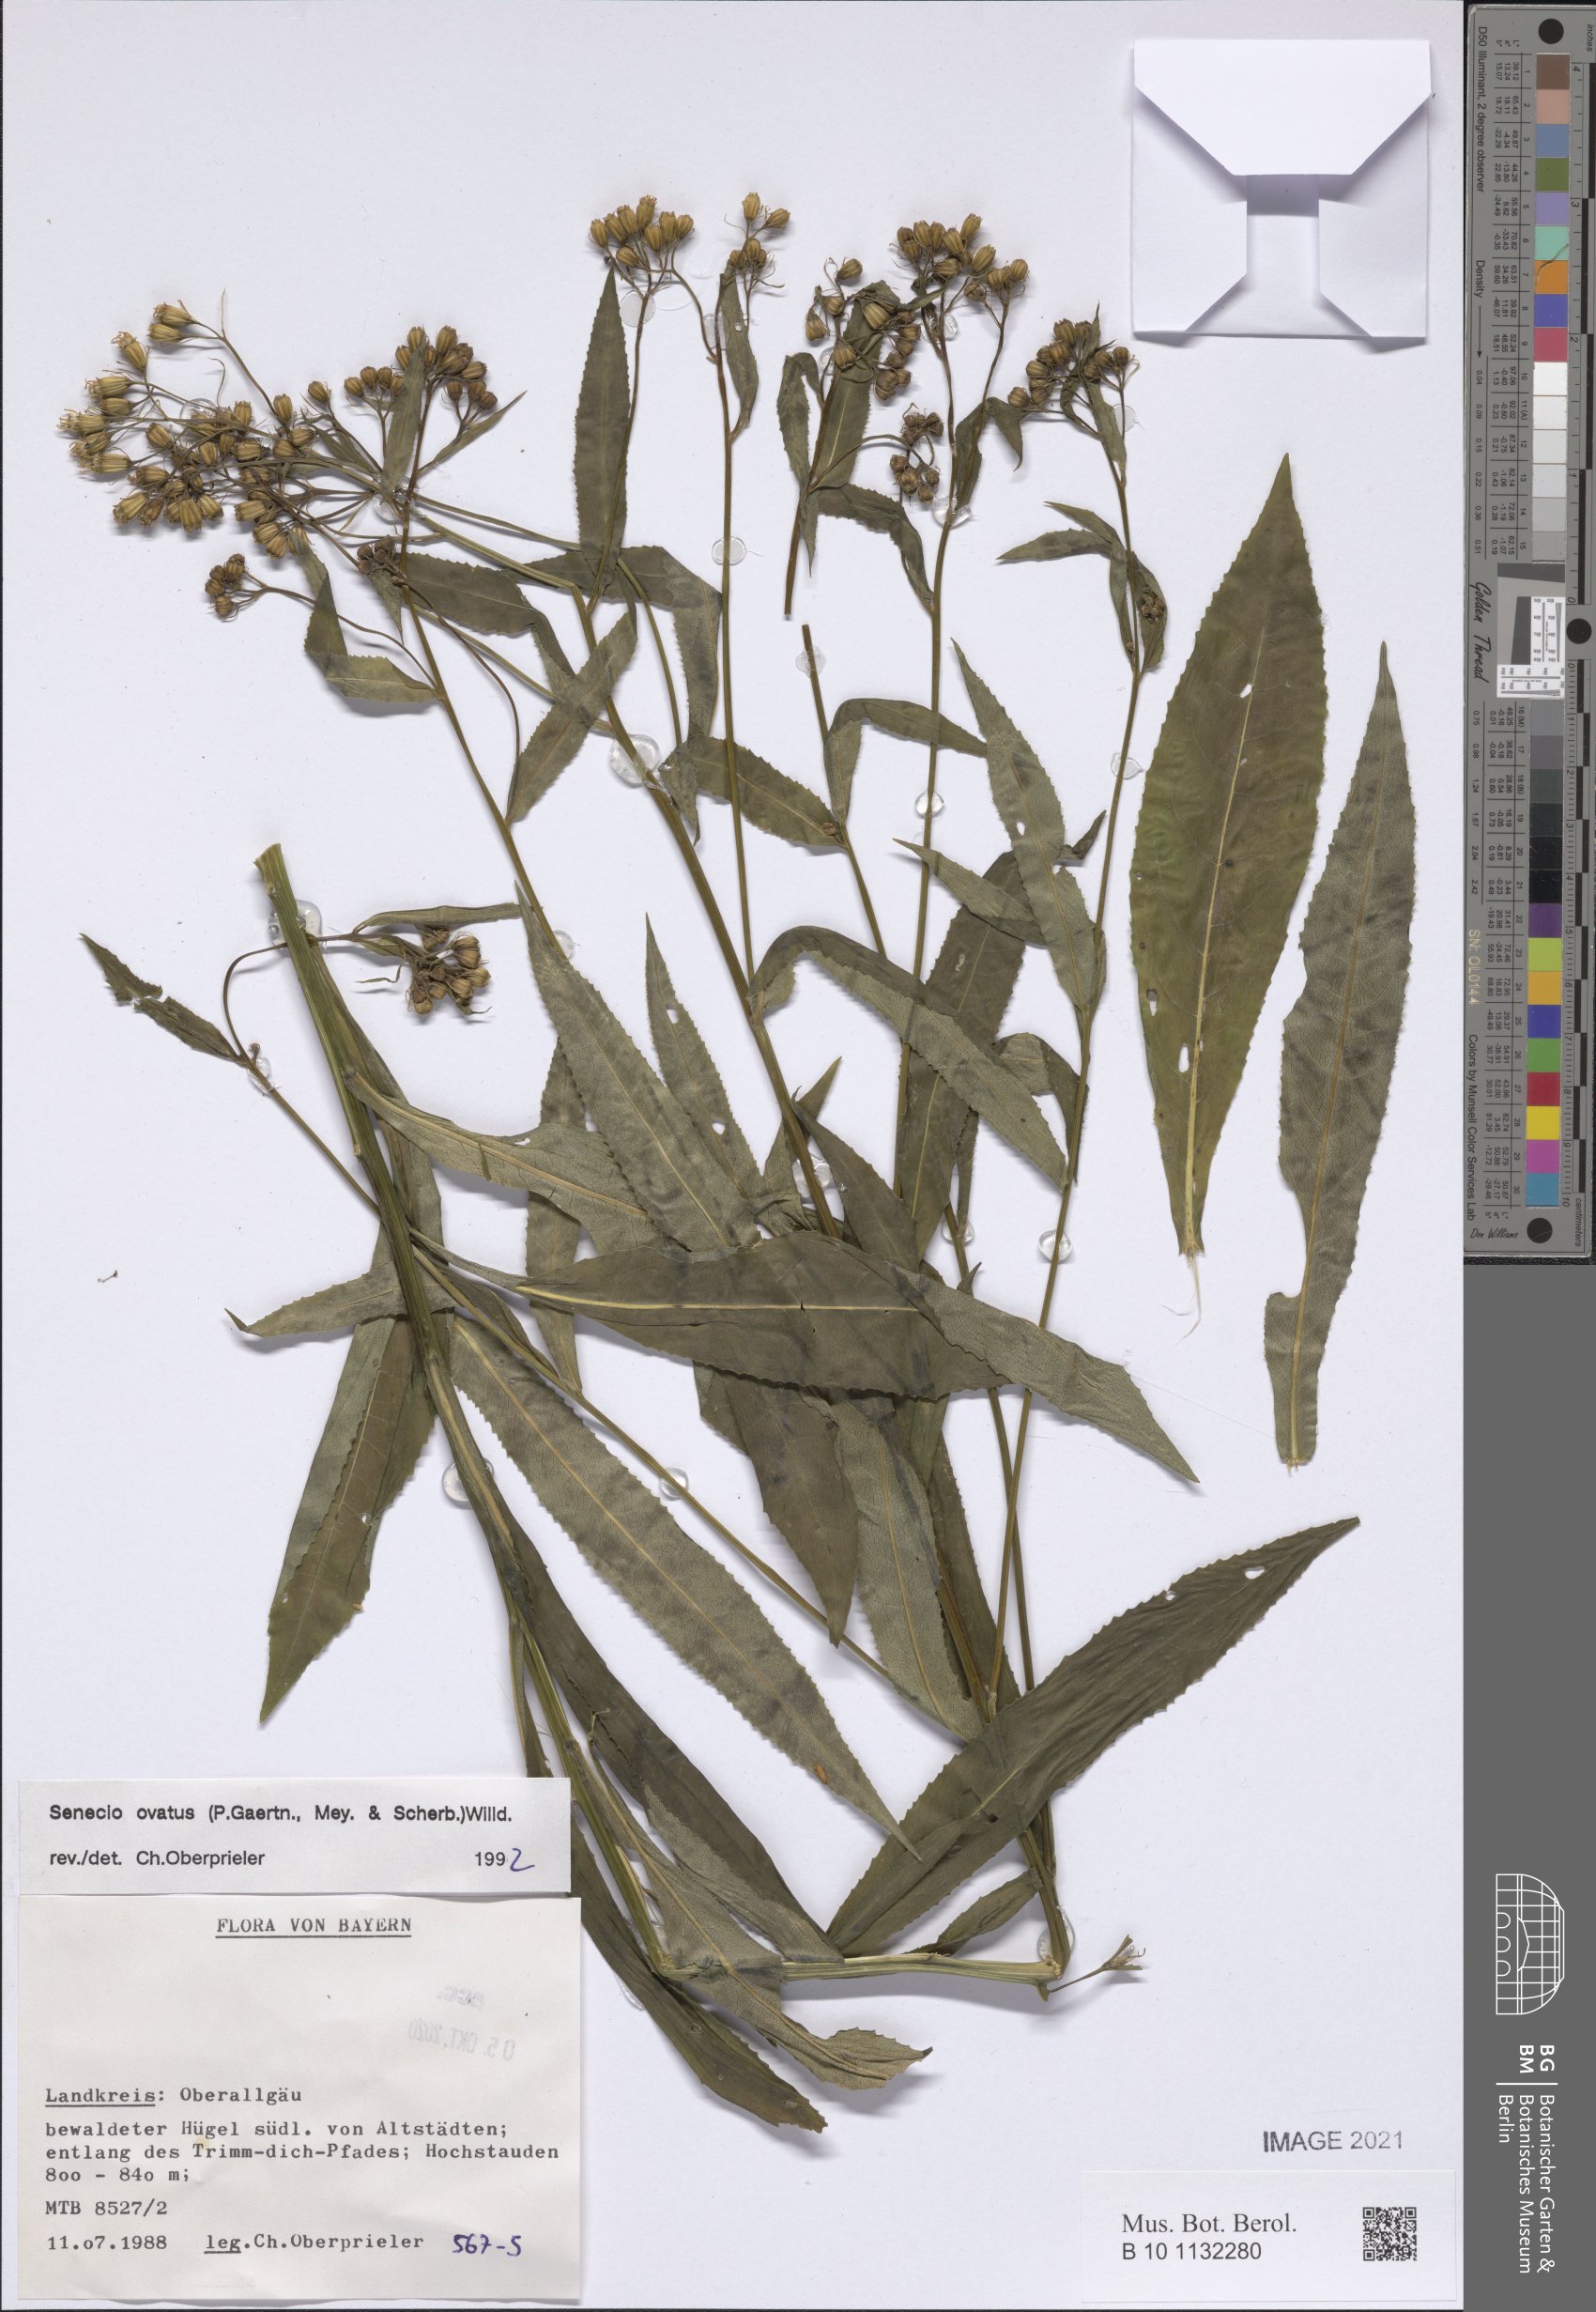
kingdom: Plantae
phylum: Tracheophyta
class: Magnoliopsida
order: Asterales
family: Asteraceae
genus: Senecio
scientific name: Senecio ovatus
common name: Wood ragwort
